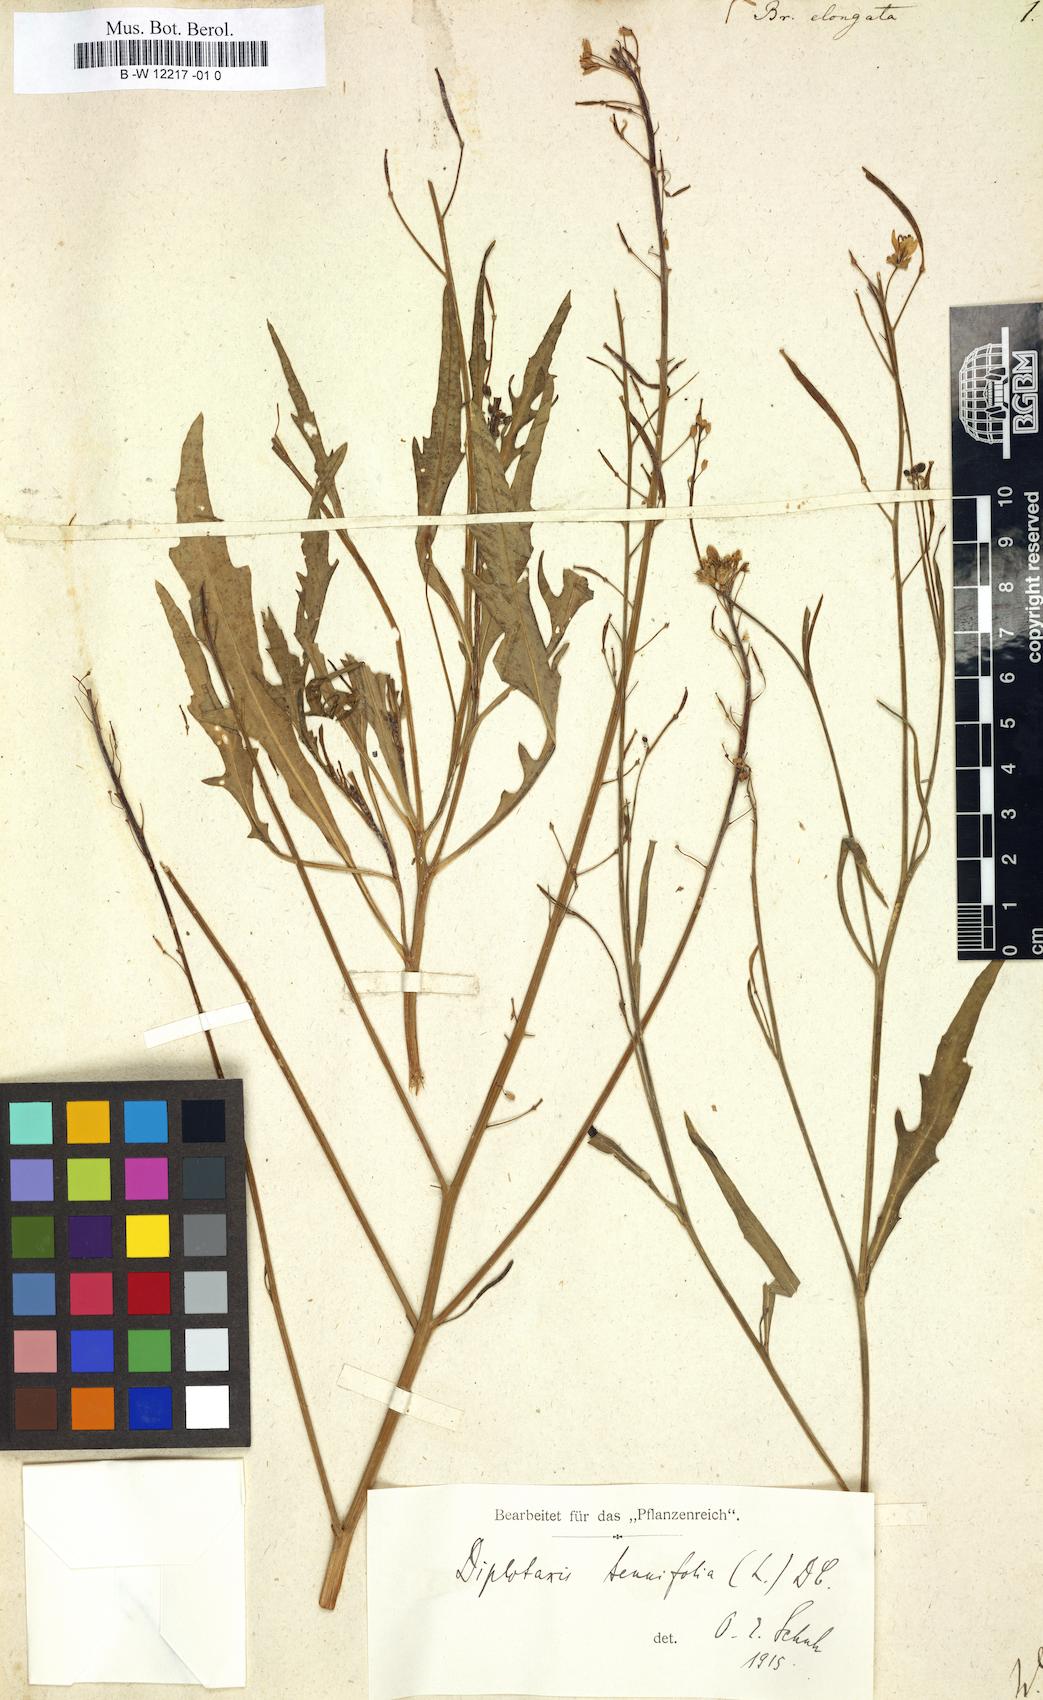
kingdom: Plantae
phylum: Tracheophyta
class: Magnoliopsida
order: Brassicales
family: Brassicaceae
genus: Brassica
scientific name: Brassica elongata
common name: Long-stalked rape
